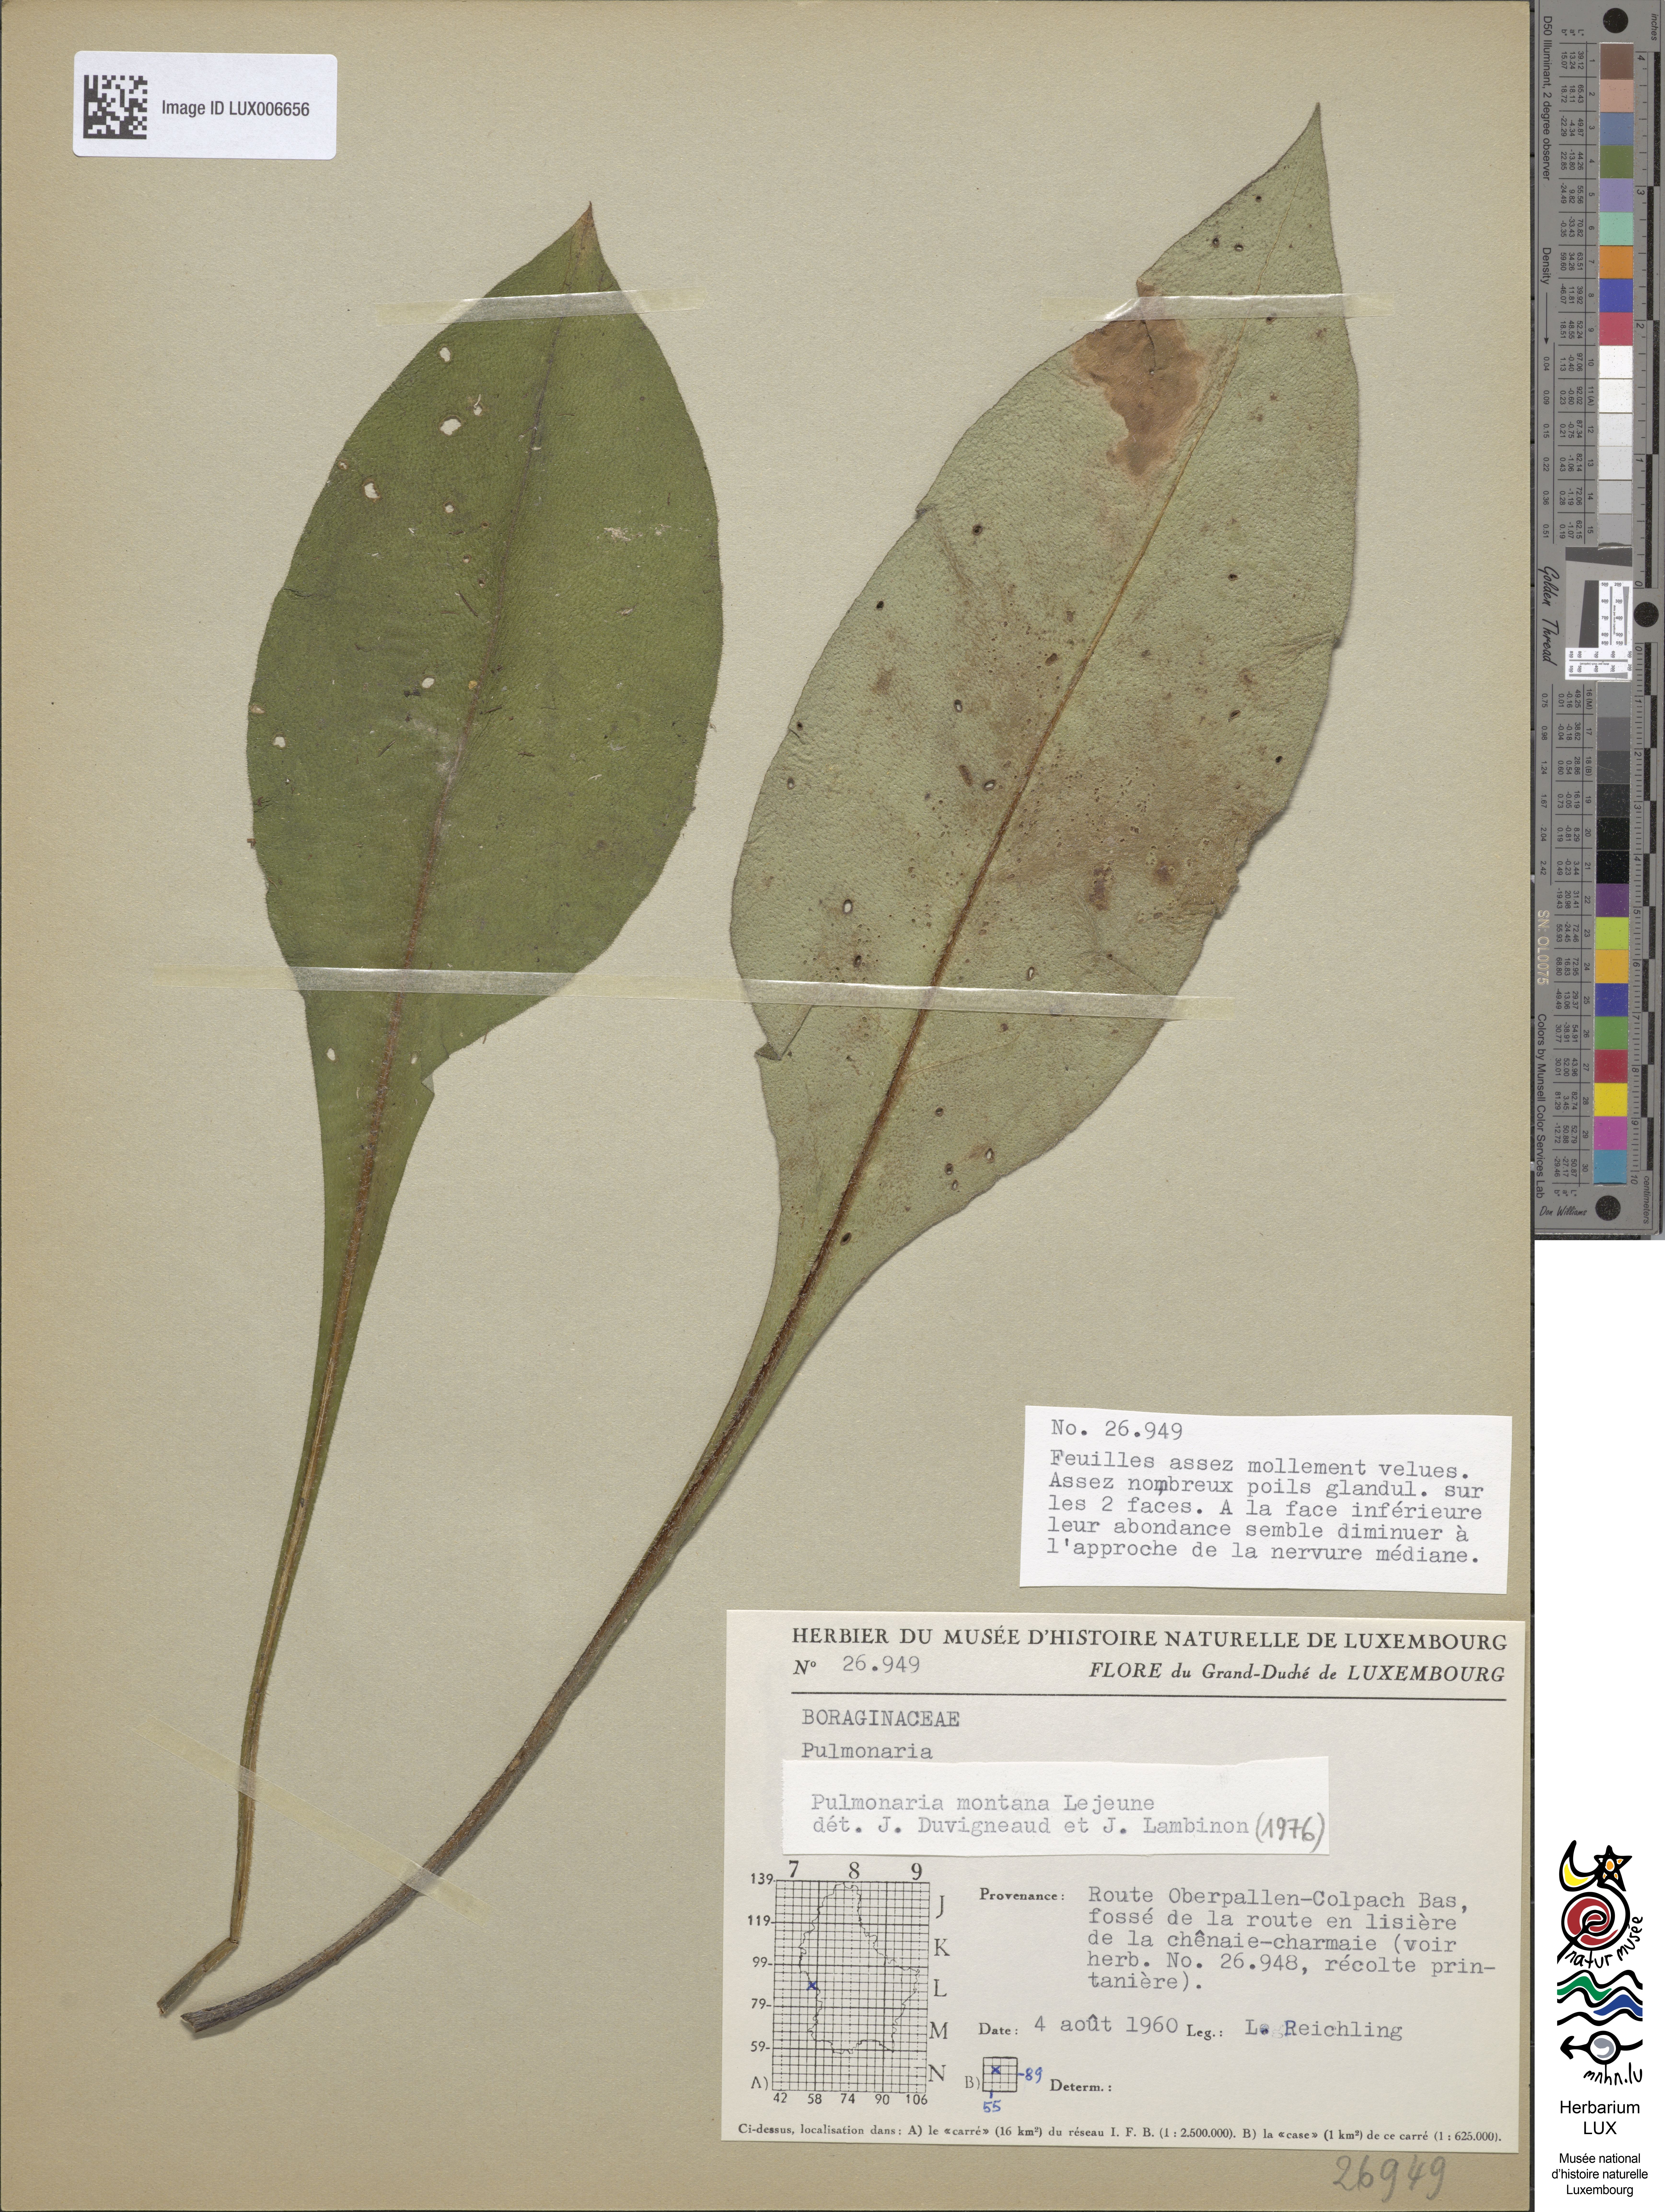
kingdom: Plantae
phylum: Tracheophyta
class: Magnoliopsida
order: Boraginales
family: Boraginaceae
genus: Pulmonaria
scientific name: Pulmonaria montana
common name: Mountain lungwort
